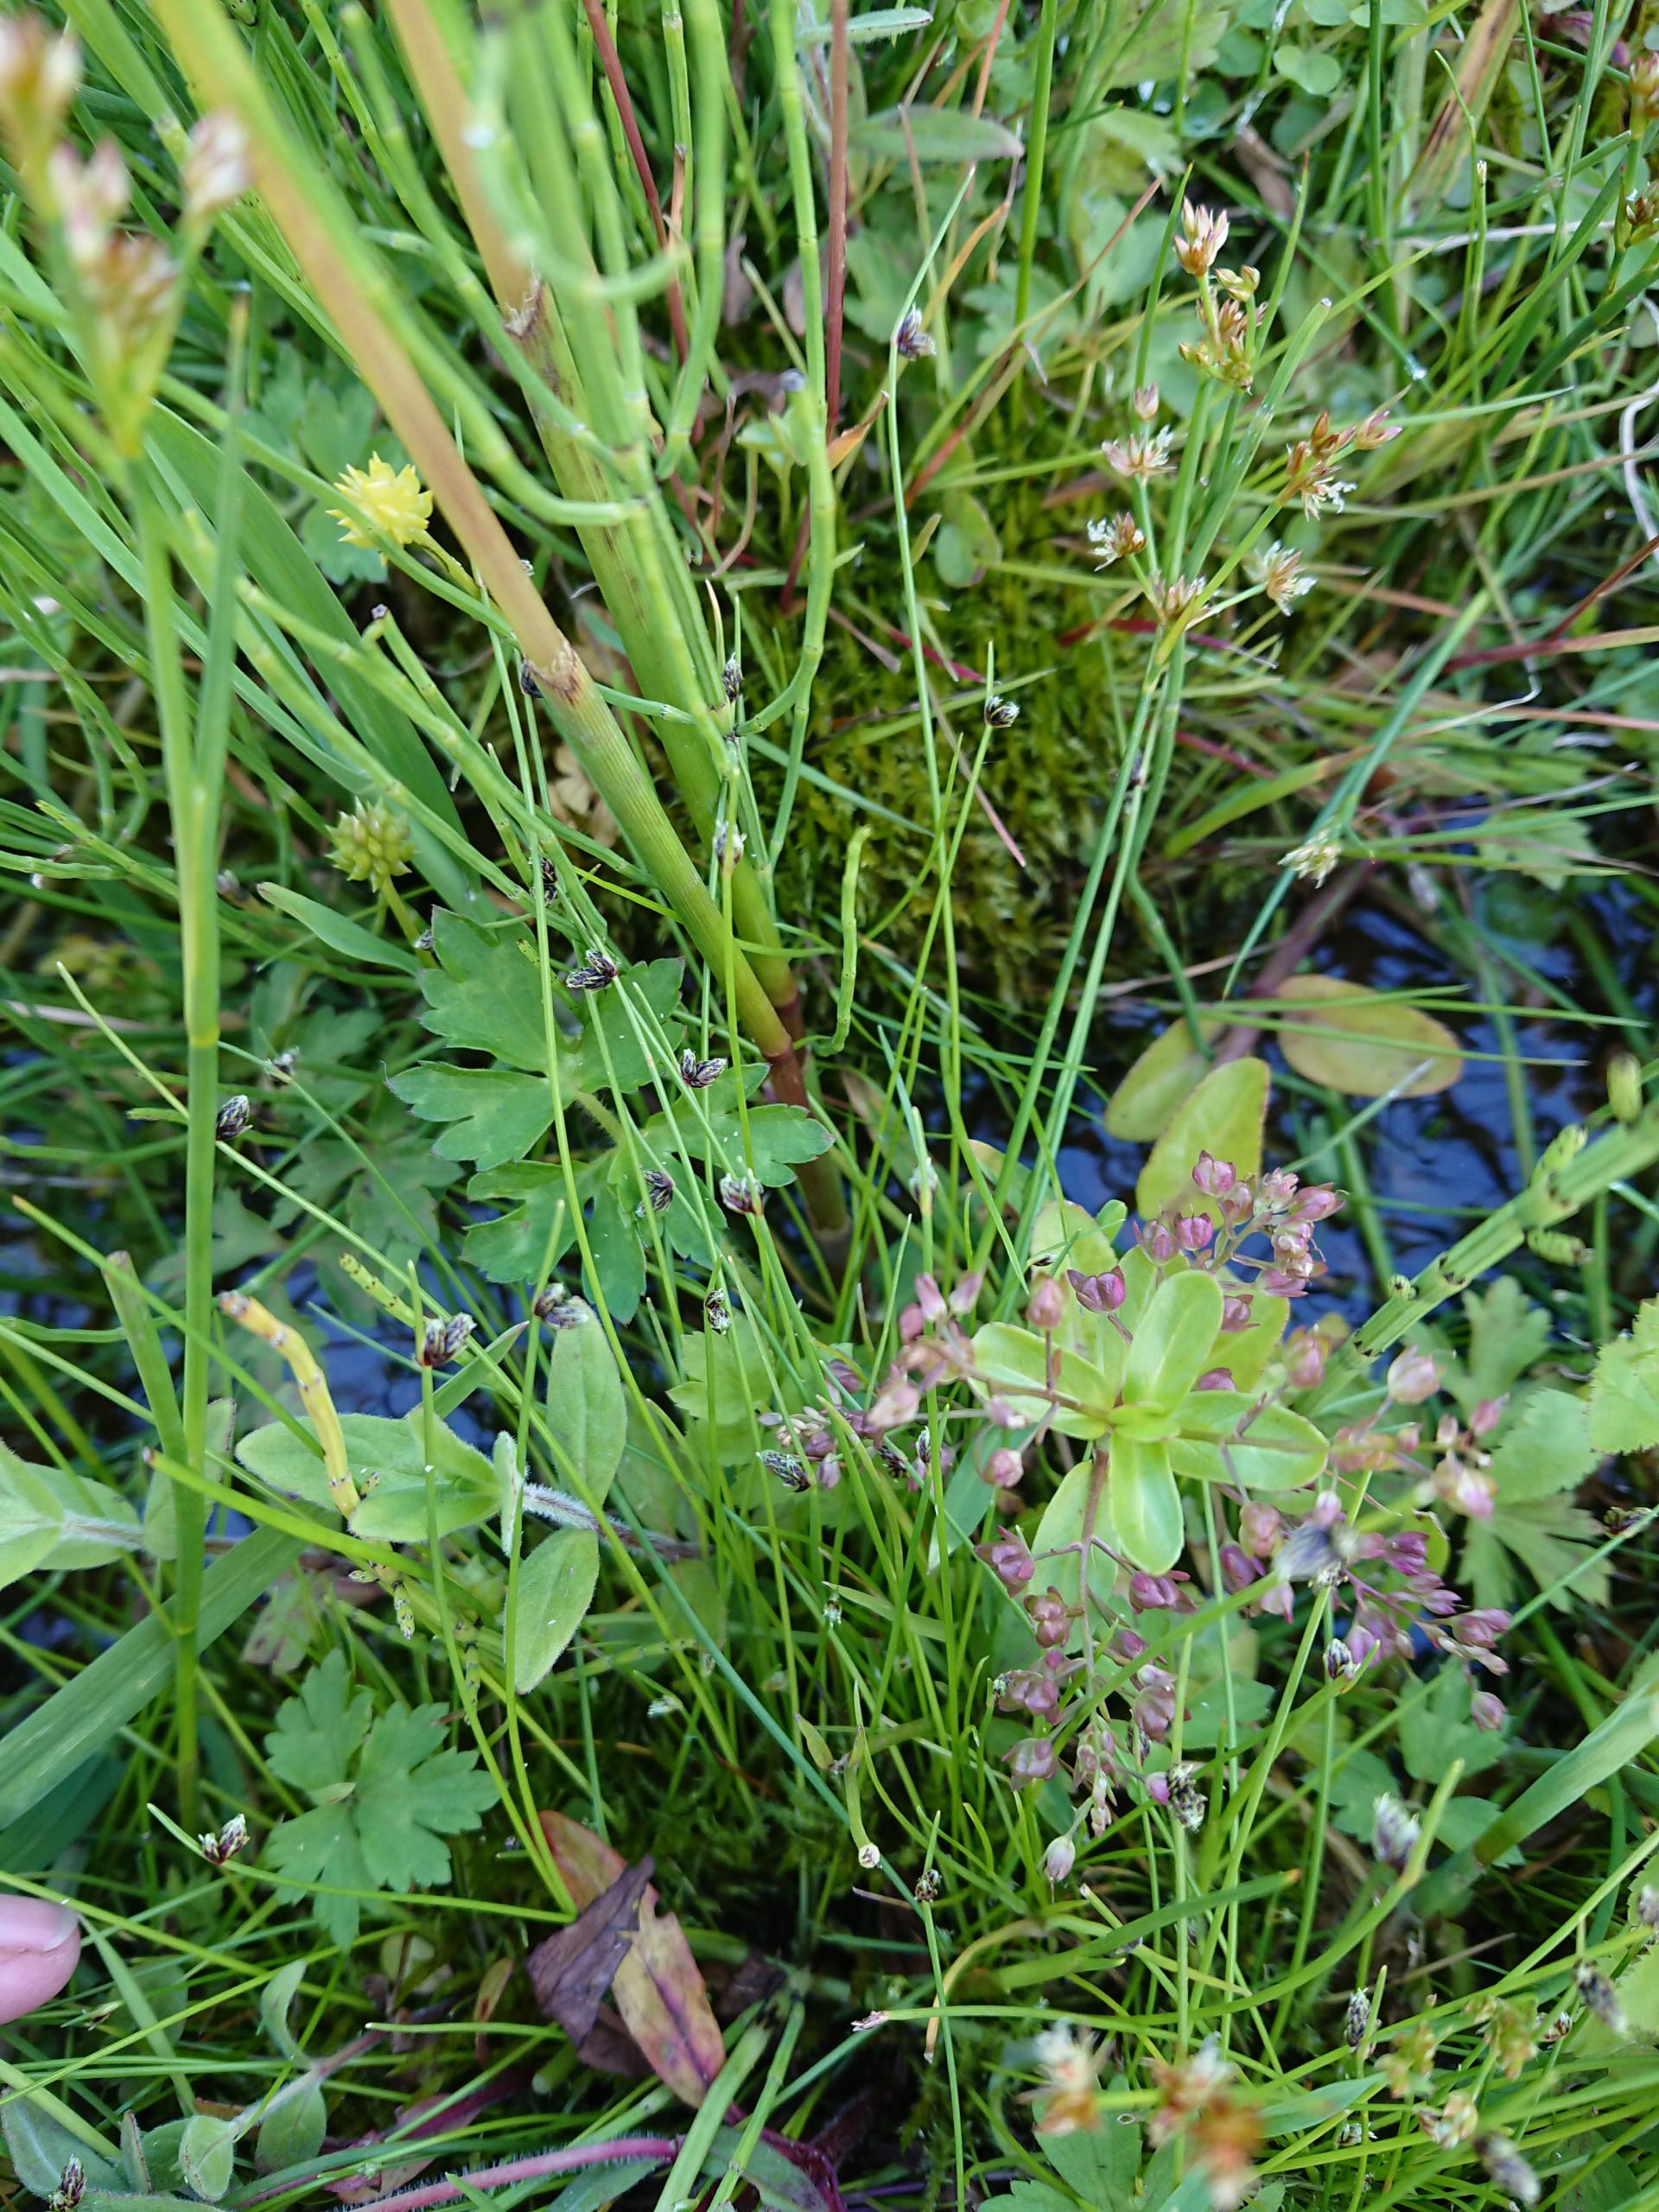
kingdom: Plantae
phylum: Tracheophyta
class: Liliopsida
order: Poales
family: Cyperaceae
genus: Isolepis
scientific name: Isolepis setacea
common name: Børste-kogleaks
